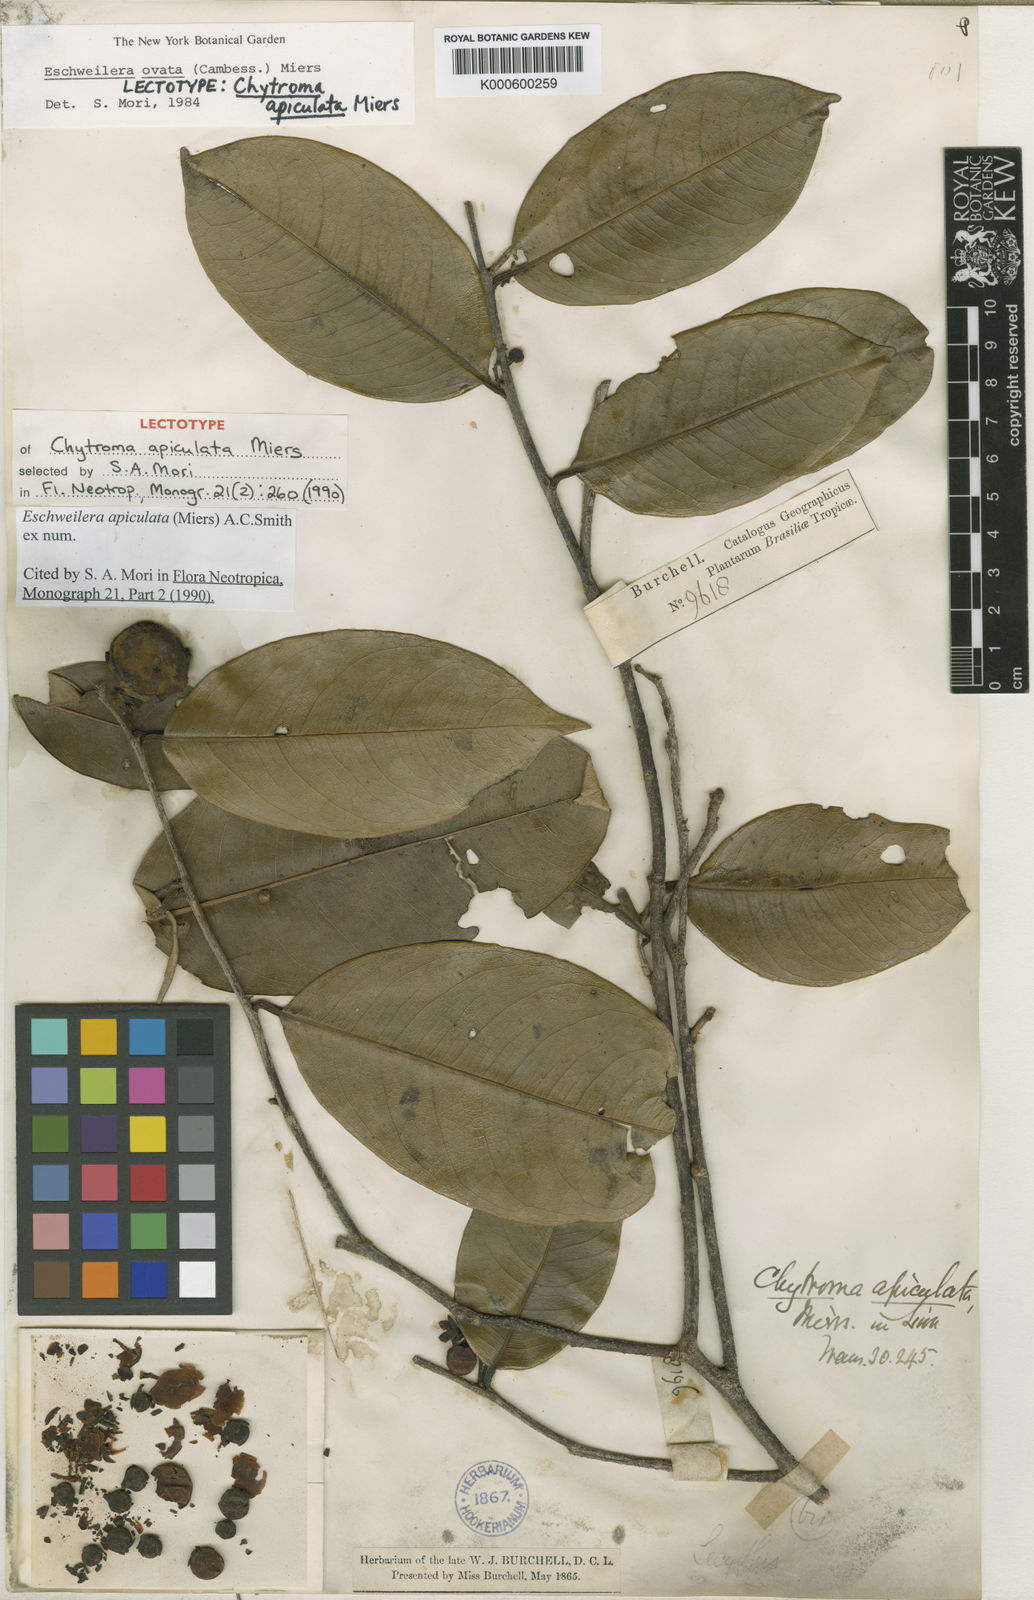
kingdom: Plantae
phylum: Tracheophyta
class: Magnoliopsida
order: Ericales
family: Lecythidaceae
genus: Eschweilera
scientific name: Eschweilera apiculata
